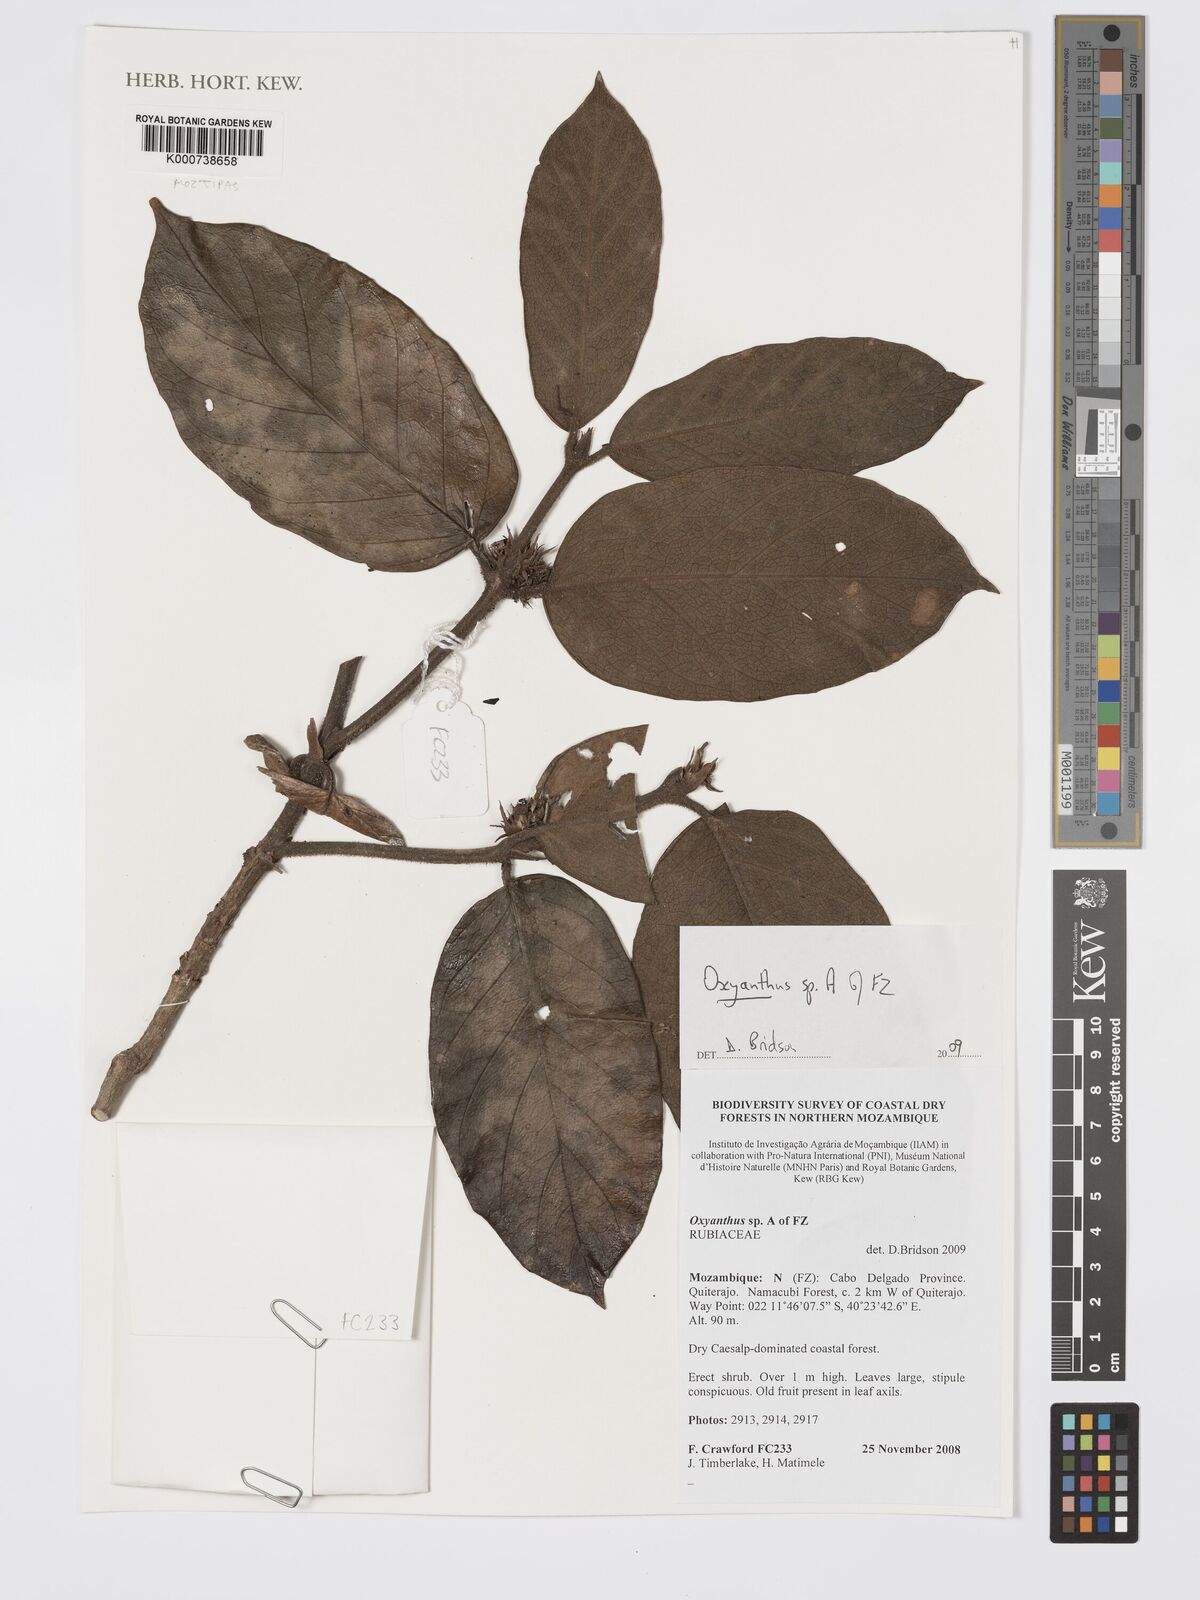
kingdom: Plantae
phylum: Tracheophyta
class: Magnoliopsida
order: Gentianales
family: Rubiaceae
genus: Oxyanthus
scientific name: Oxyanthus strigosus
